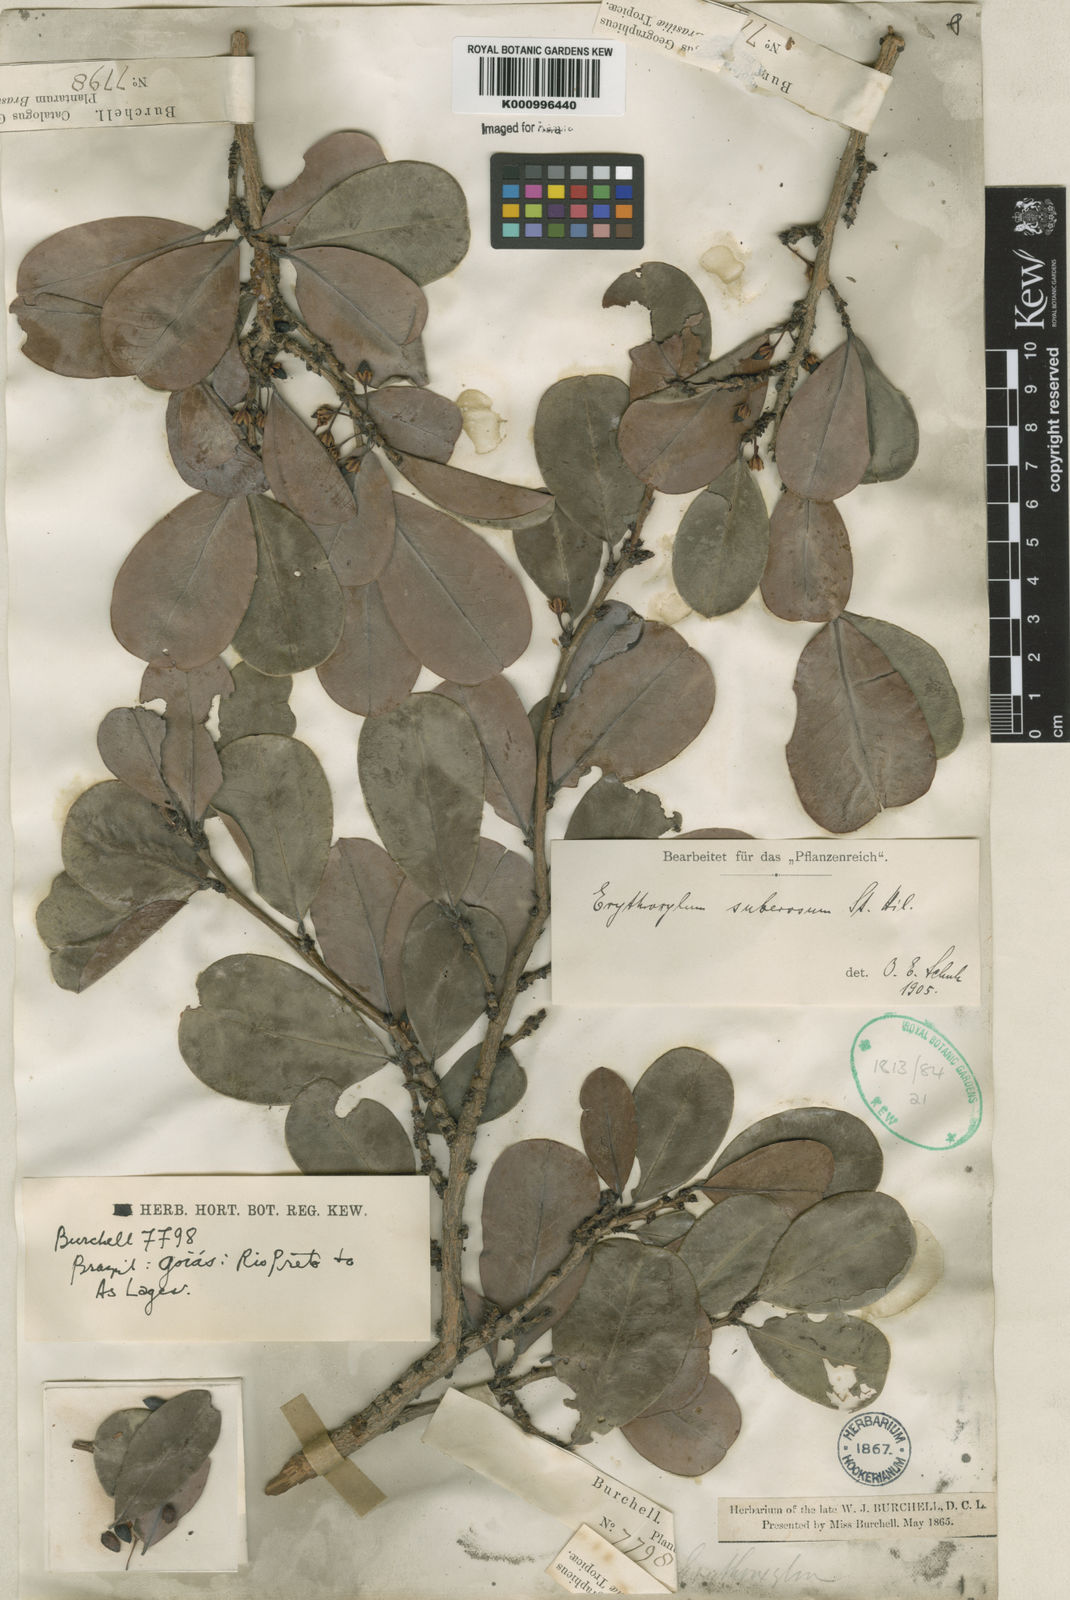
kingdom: Plantae
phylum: Tracheophyta
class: Magnoliopsida
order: Malpighiales
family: Erythroxylaceae
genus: Erythroxylum
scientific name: Erythroxylum suberosum
